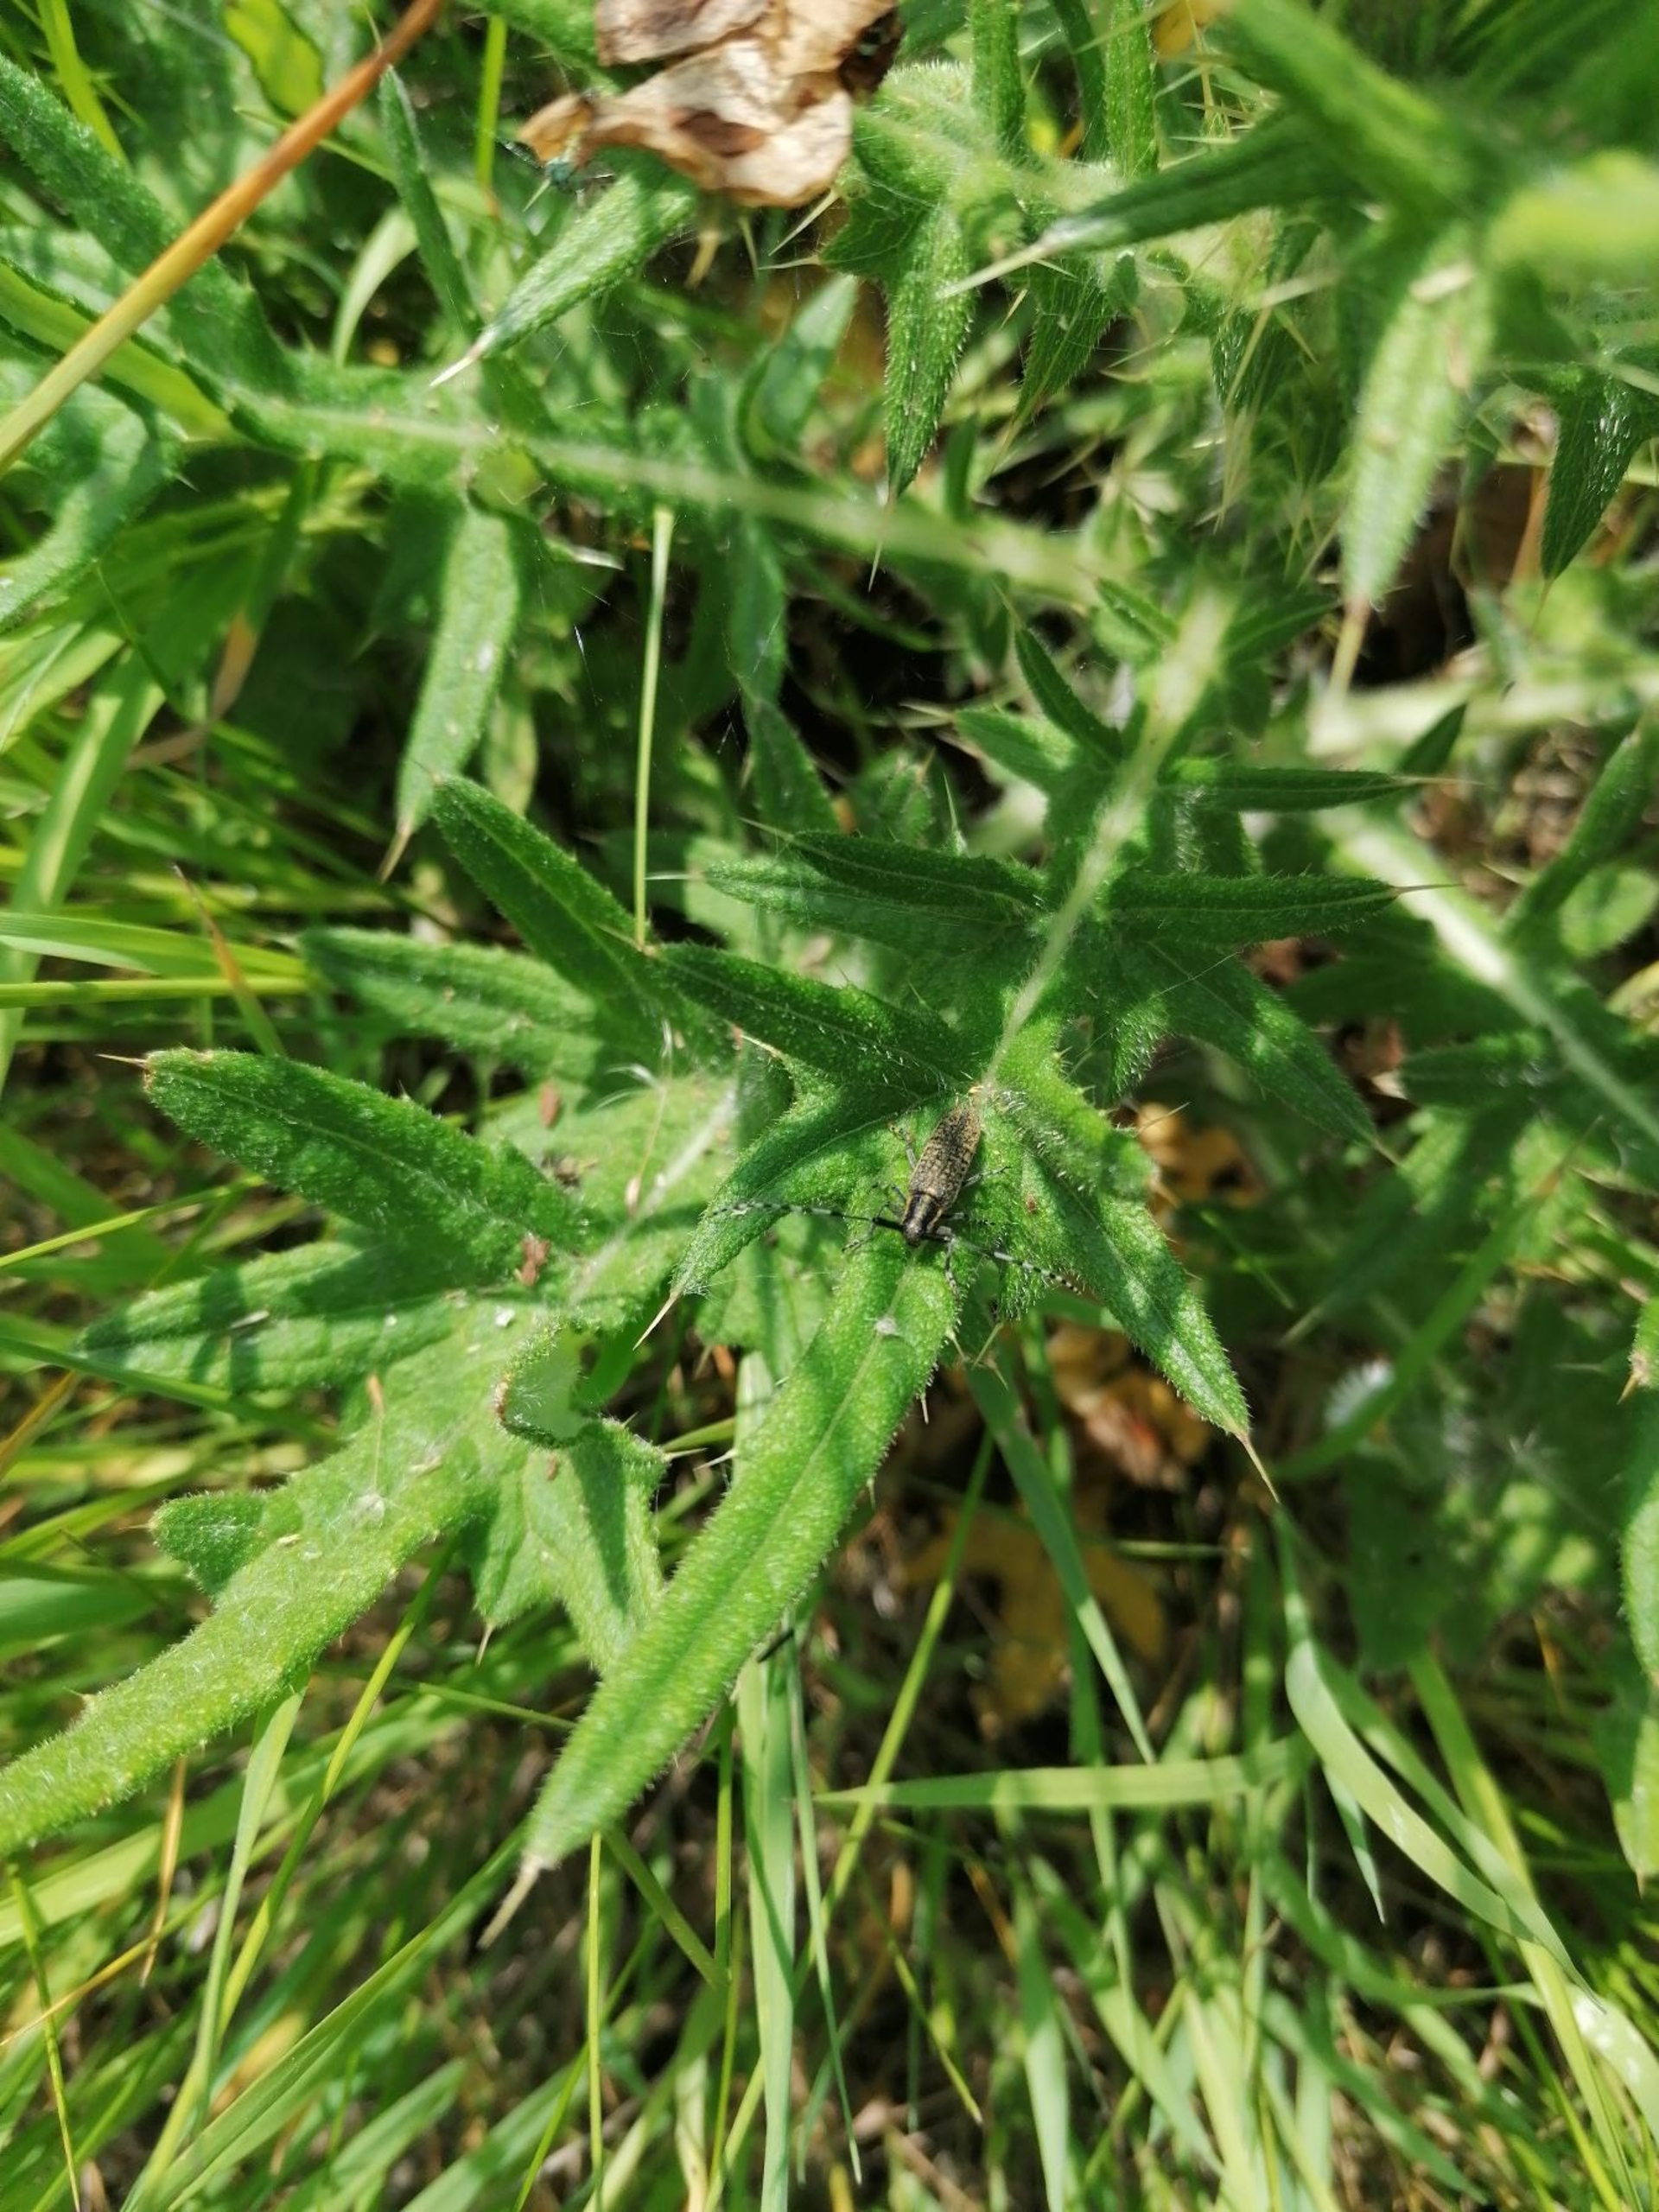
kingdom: Animalia
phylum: Arthropoda
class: Insecta
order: Coleoptera
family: Cerambycidae
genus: Agapanthia
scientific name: Agapanthia villosoviridescens
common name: Tidselbuk
